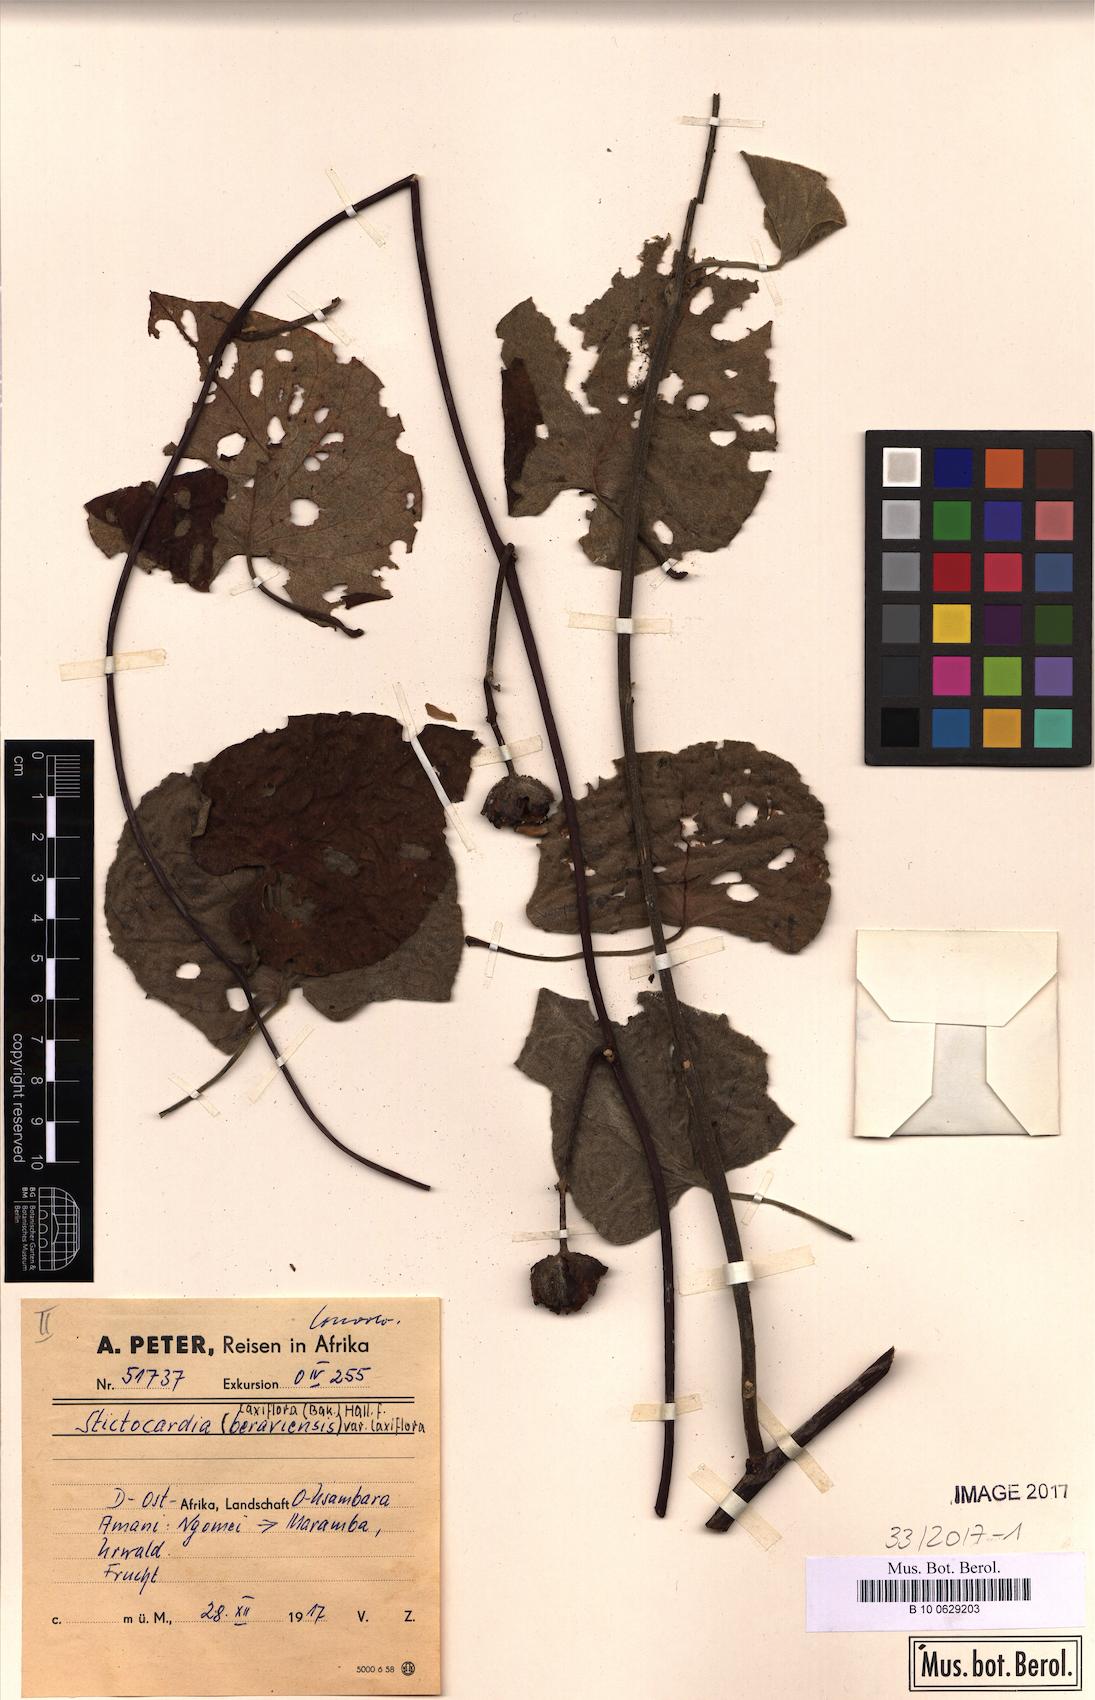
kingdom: Plantae
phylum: Tracheophyta
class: Magnoliopsida
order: Solanales
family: Convolvulaceae
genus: Stictocardia
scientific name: Stictocardia laxiflora
